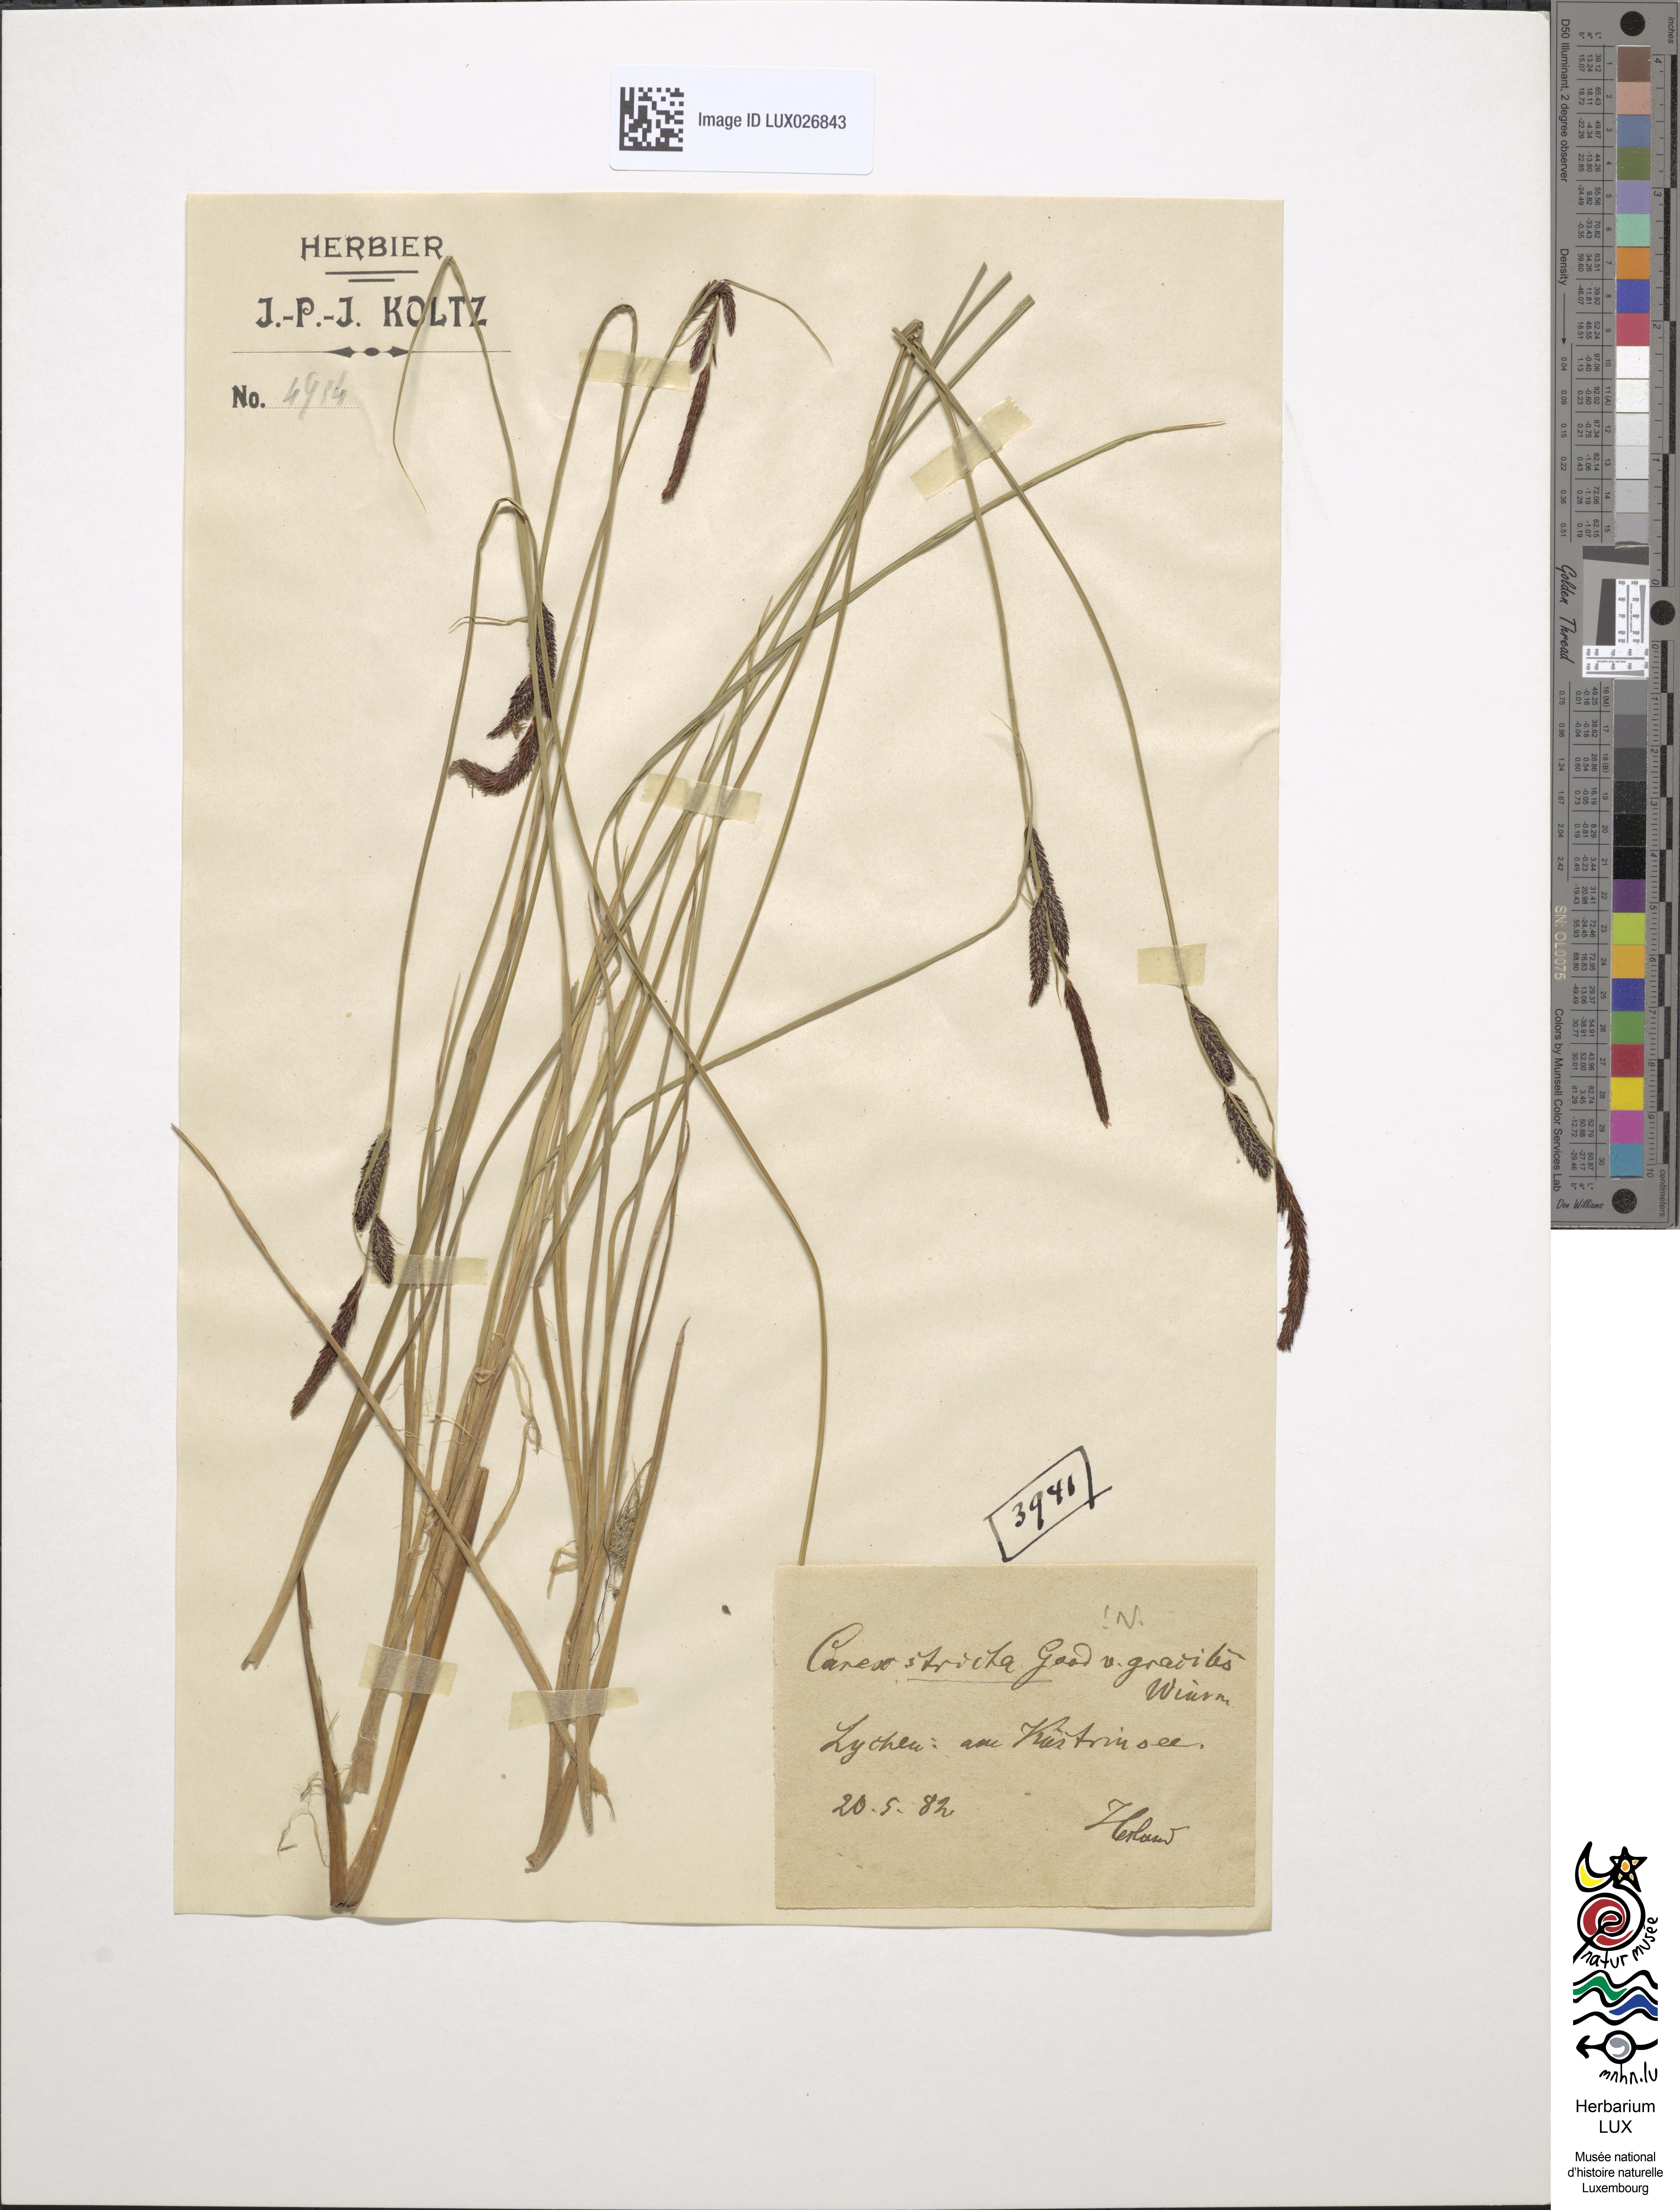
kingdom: Plantae
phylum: Tracheophyta
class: Liliopsida
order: Poales
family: Cyperaceae
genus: Carex
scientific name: Carex elata
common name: Tufted sedge
